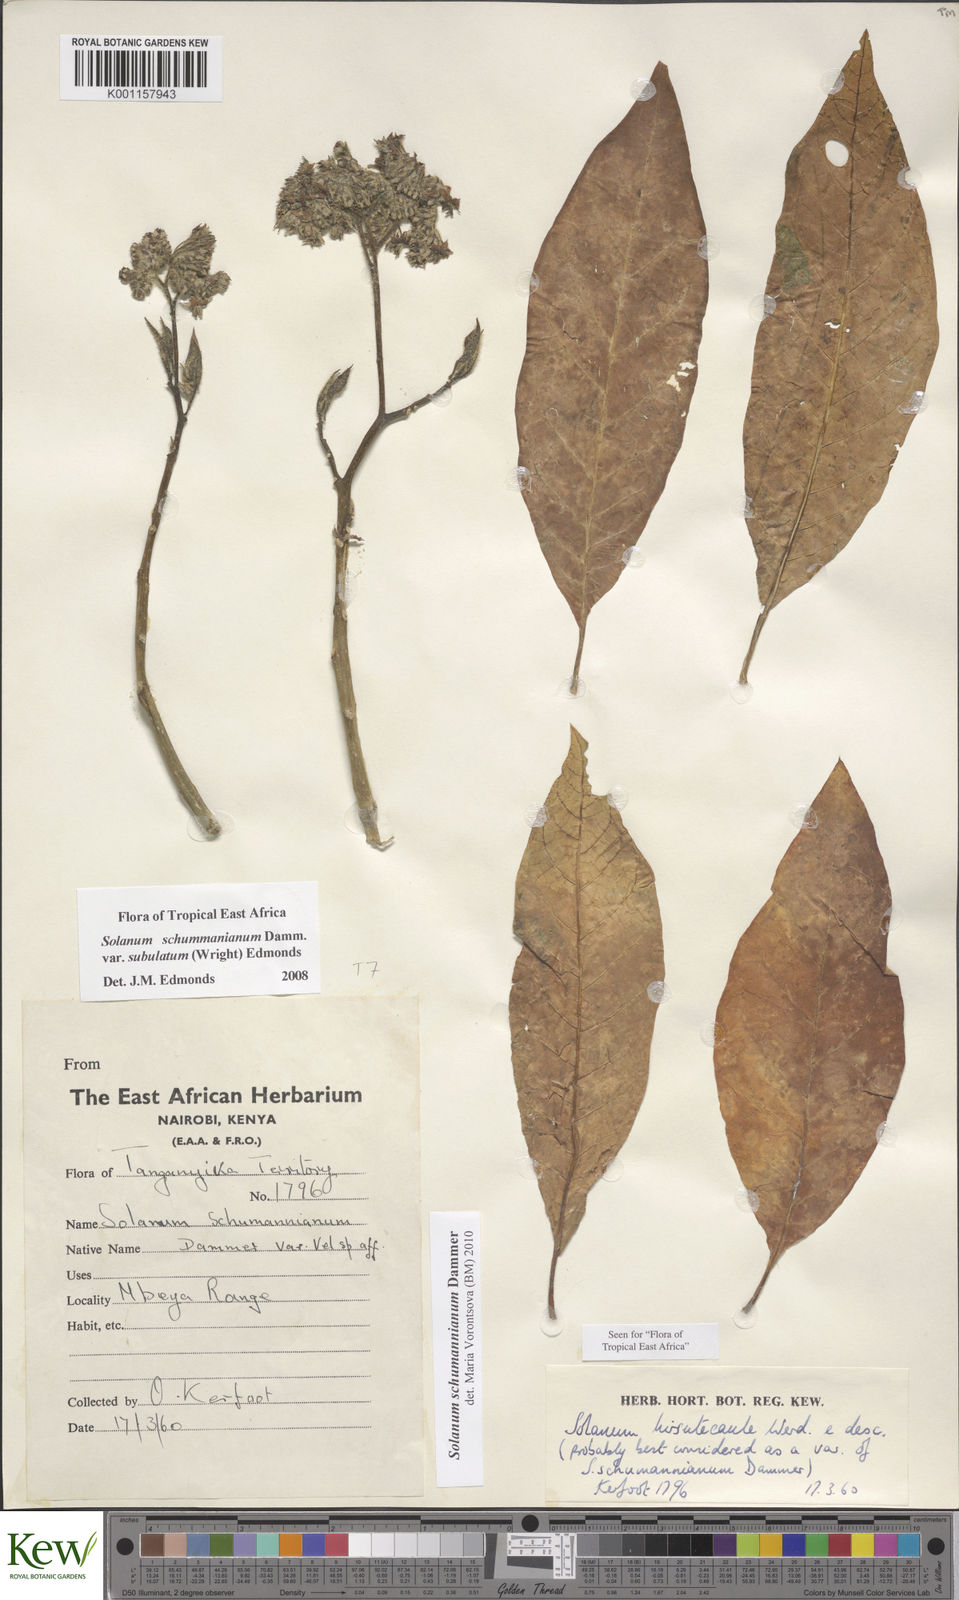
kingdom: Plantae
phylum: Tracheophyta
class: Magnoliopsida
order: Solanales
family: Solanaceae
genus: Solanum
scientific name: Solanum schumannianum
